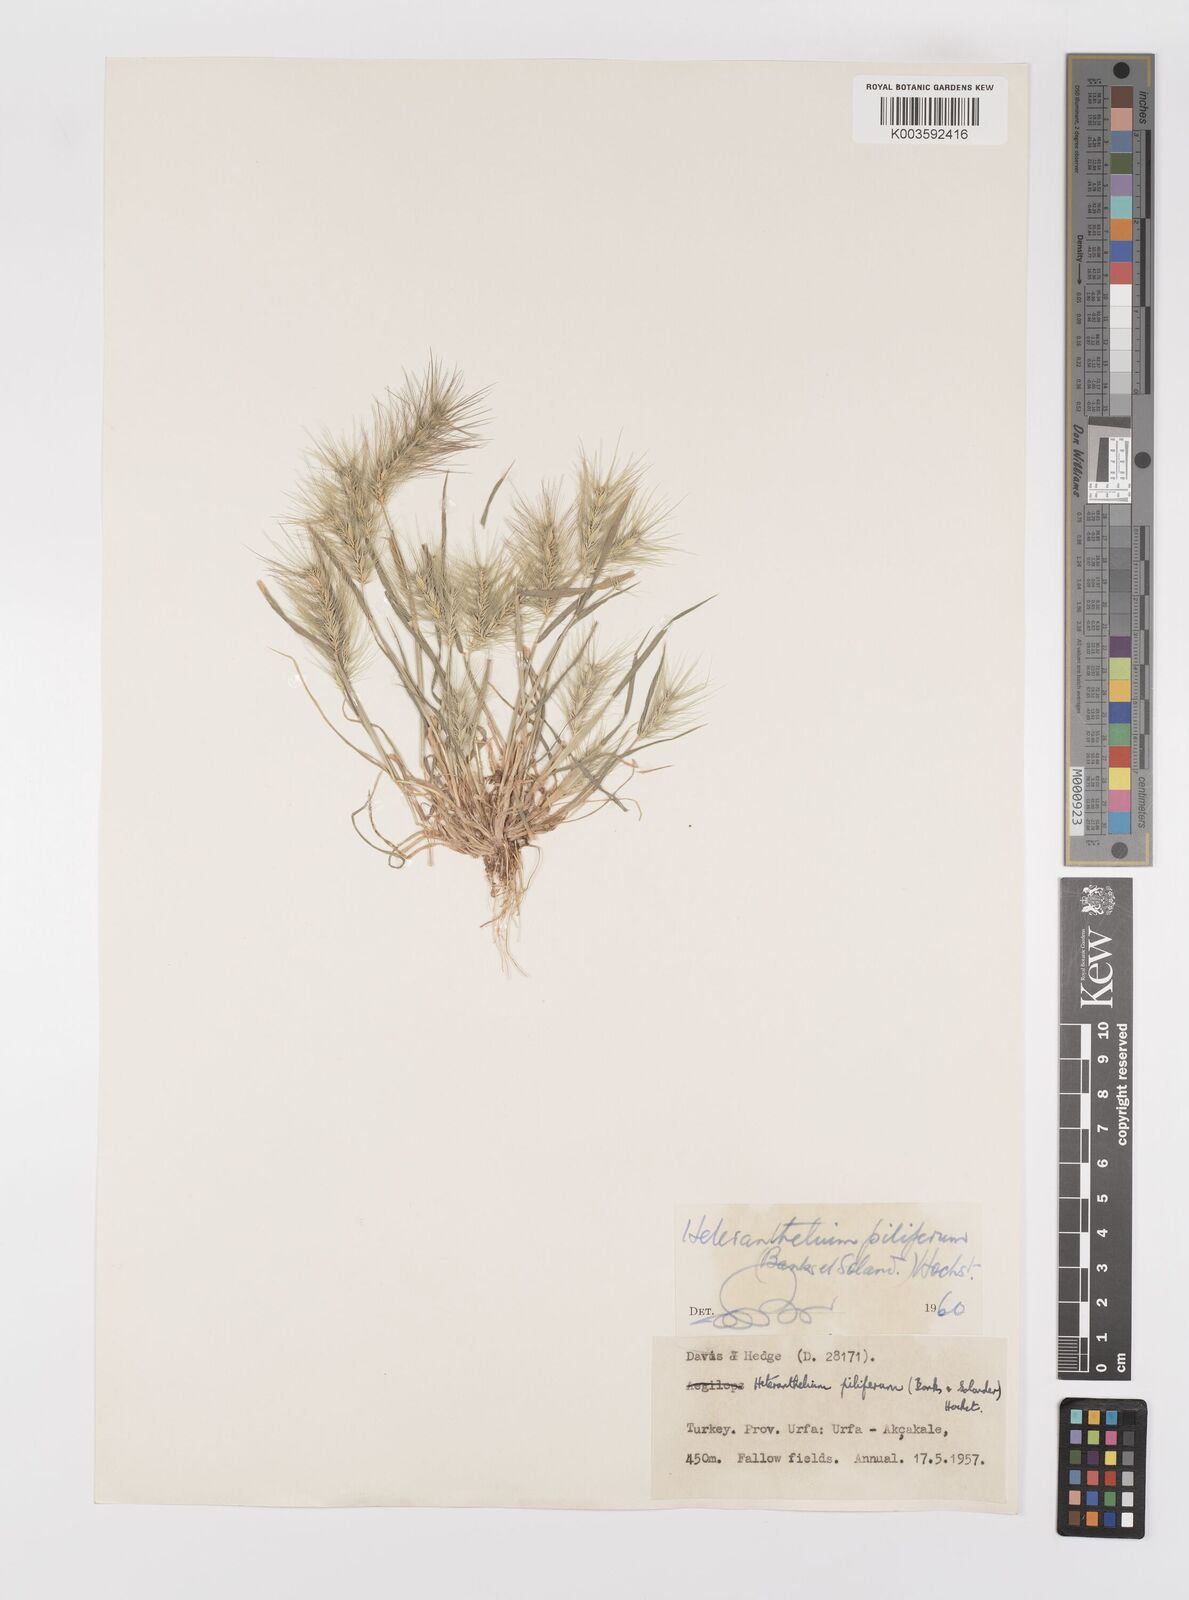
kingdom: Plantae
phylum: Tracheophyta
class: Liliopsida
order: Poales
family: Poaceae
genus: Heteranthelium
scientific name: Heteranthelium piliferum
